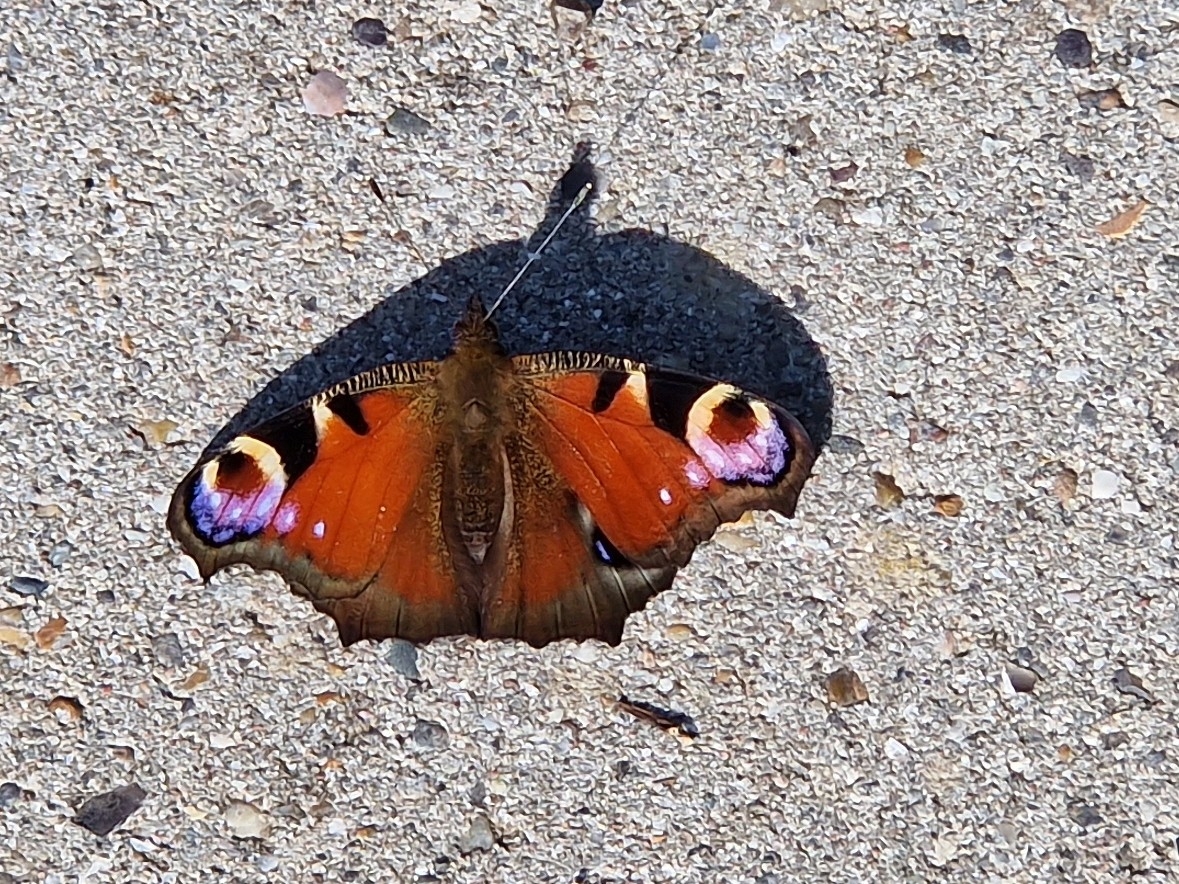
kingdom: Animalia
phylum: Arthropoda
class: Insecta
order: Lepidoptera
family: Nymphalidae
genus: Aglais
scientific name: Aglais io
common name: Dagpåfugleøje
